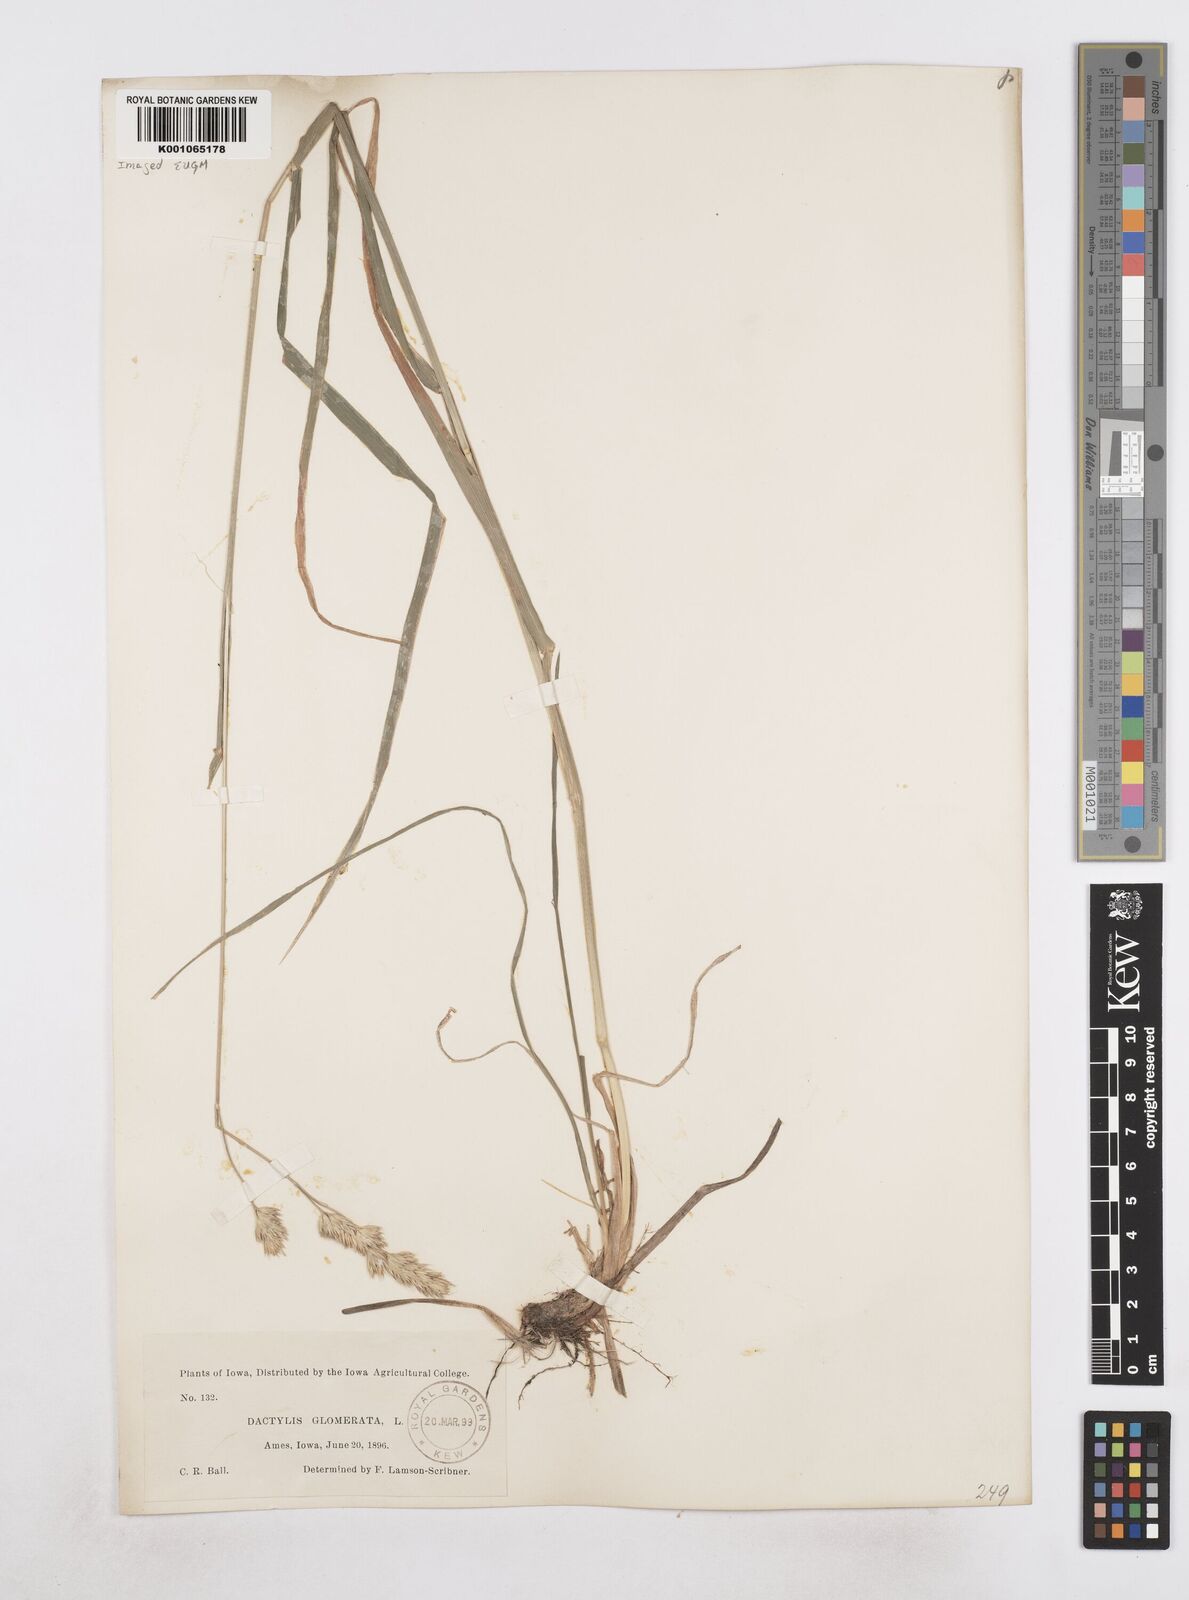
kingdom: Plantae
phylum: Tracheophyta
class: Liliopsida
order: Poales
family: Poaceae
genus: Dactylis
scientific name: Dactylis glomerata
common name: Orchardgrass
